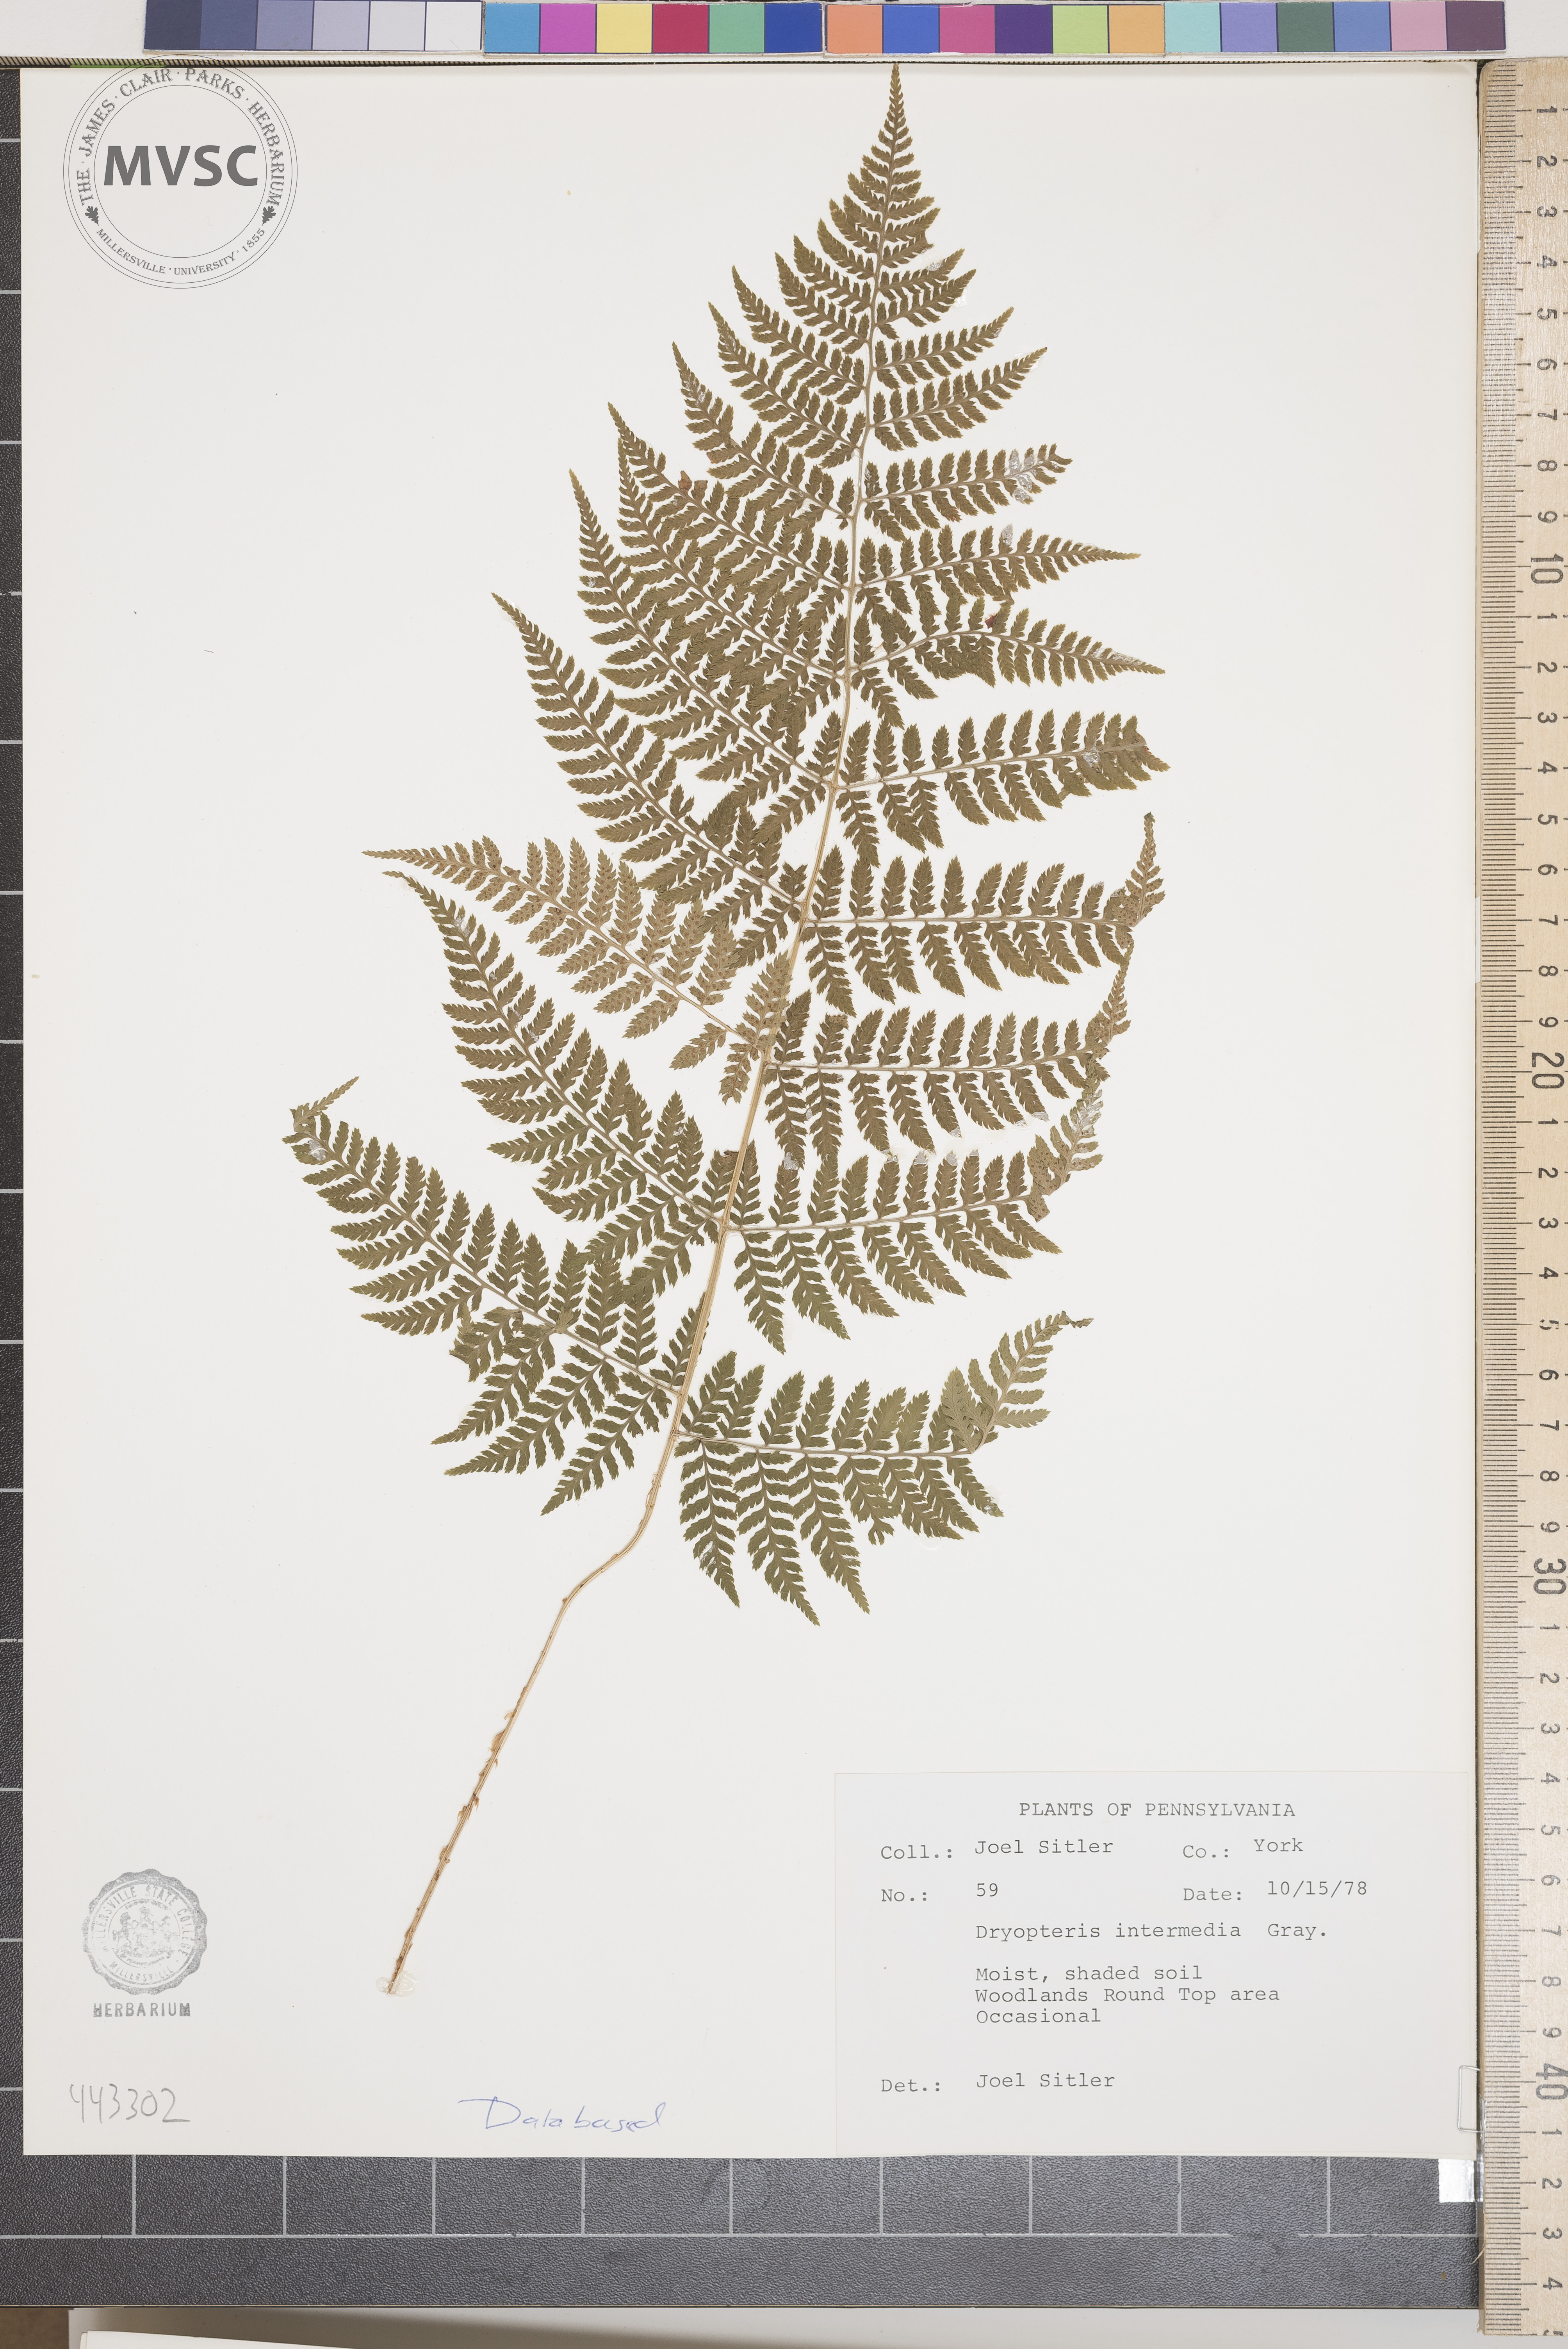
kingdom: Plantae
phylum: Tracheophyta
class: Polypodiopsida
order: Polypodiales
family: Dryopteridaceae
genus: Dryopteris
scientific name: Dryopteris intermedia
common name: Evergreen wood fern
